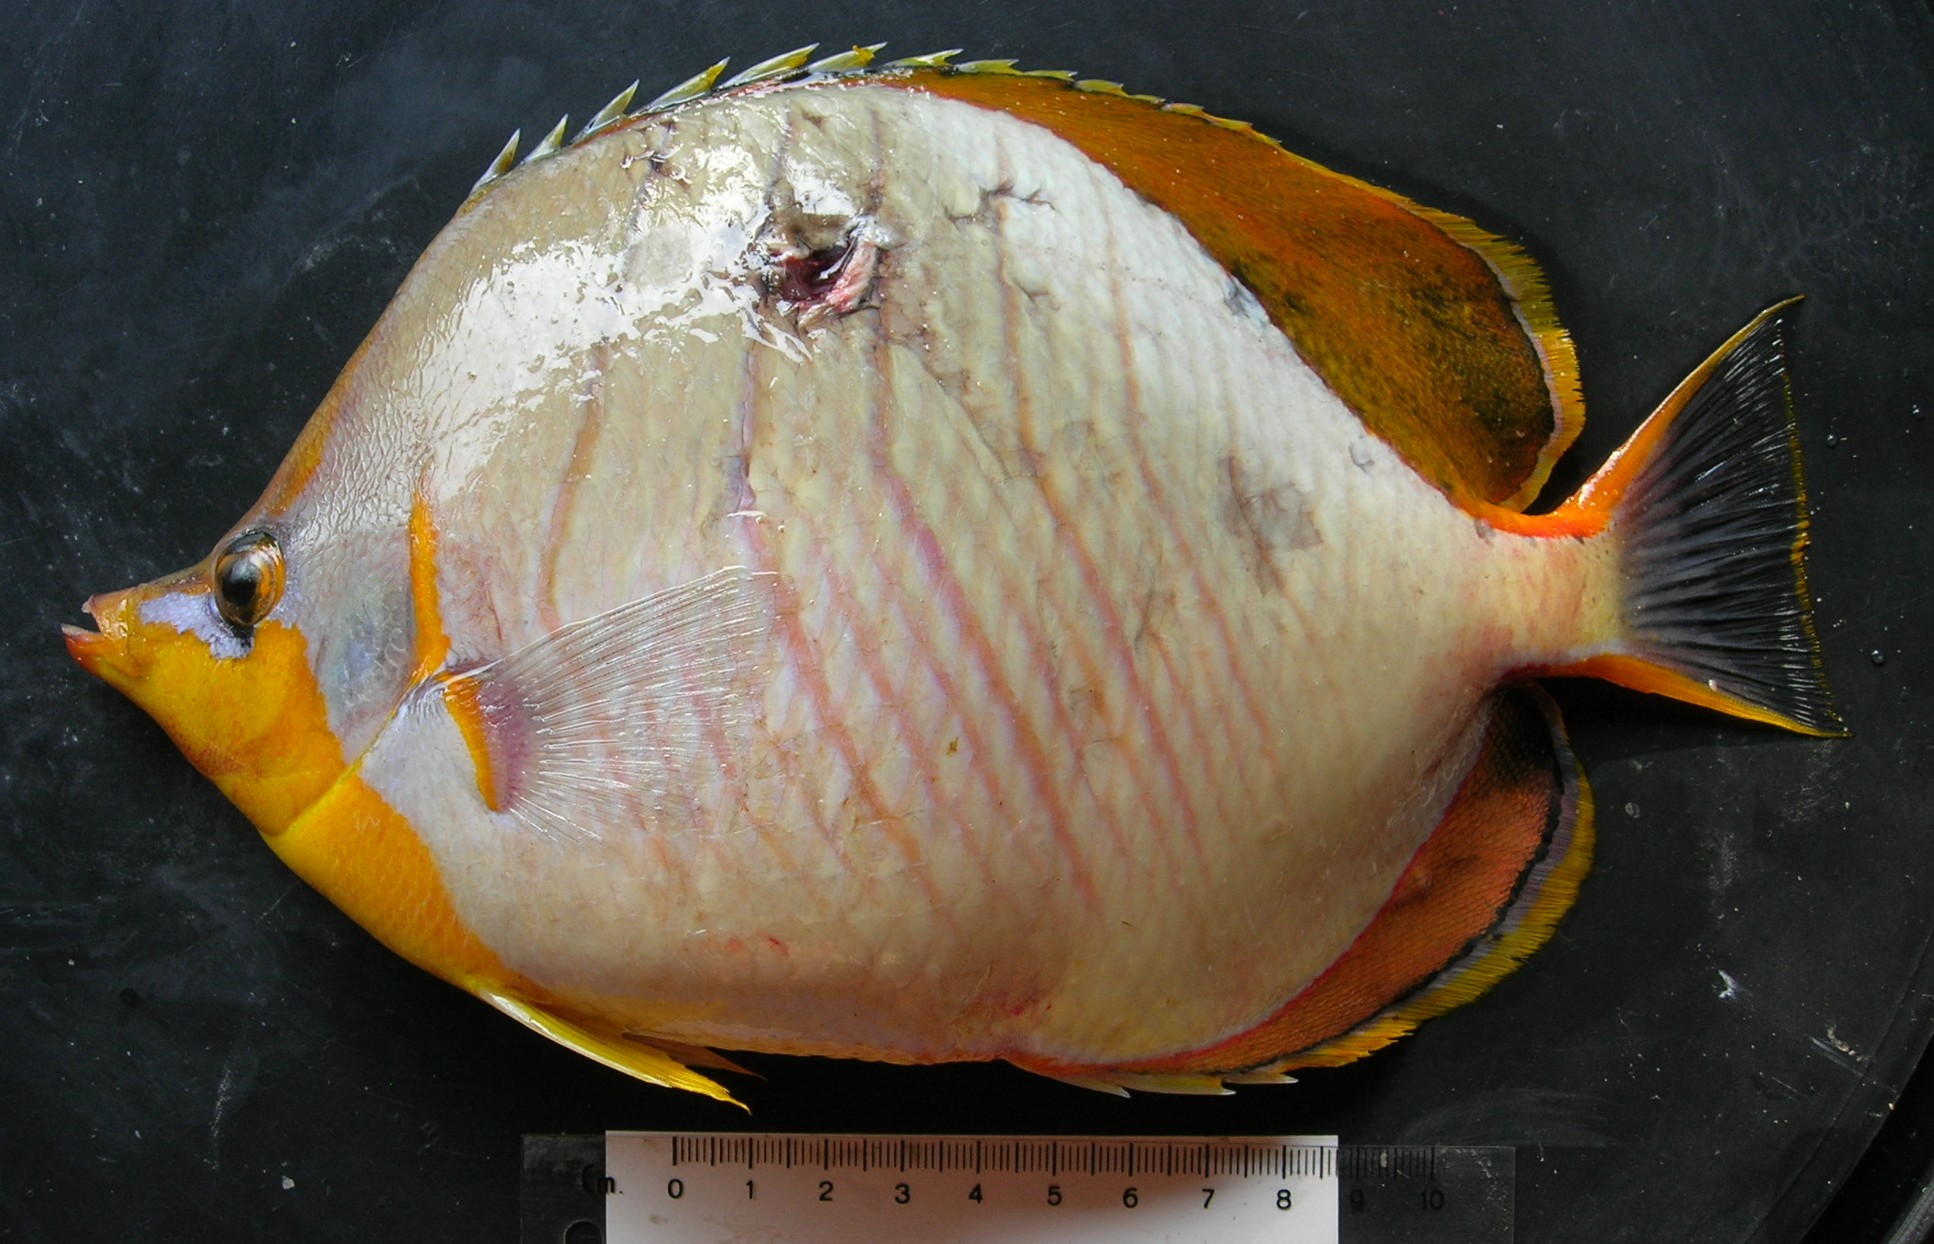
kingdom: Animalia
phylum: Chordata
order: Perciformes
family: Chaetodontidae
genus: Chaetodon
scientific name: Chaetodon xanthocephalus
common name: Yellowhead butterflyfish
